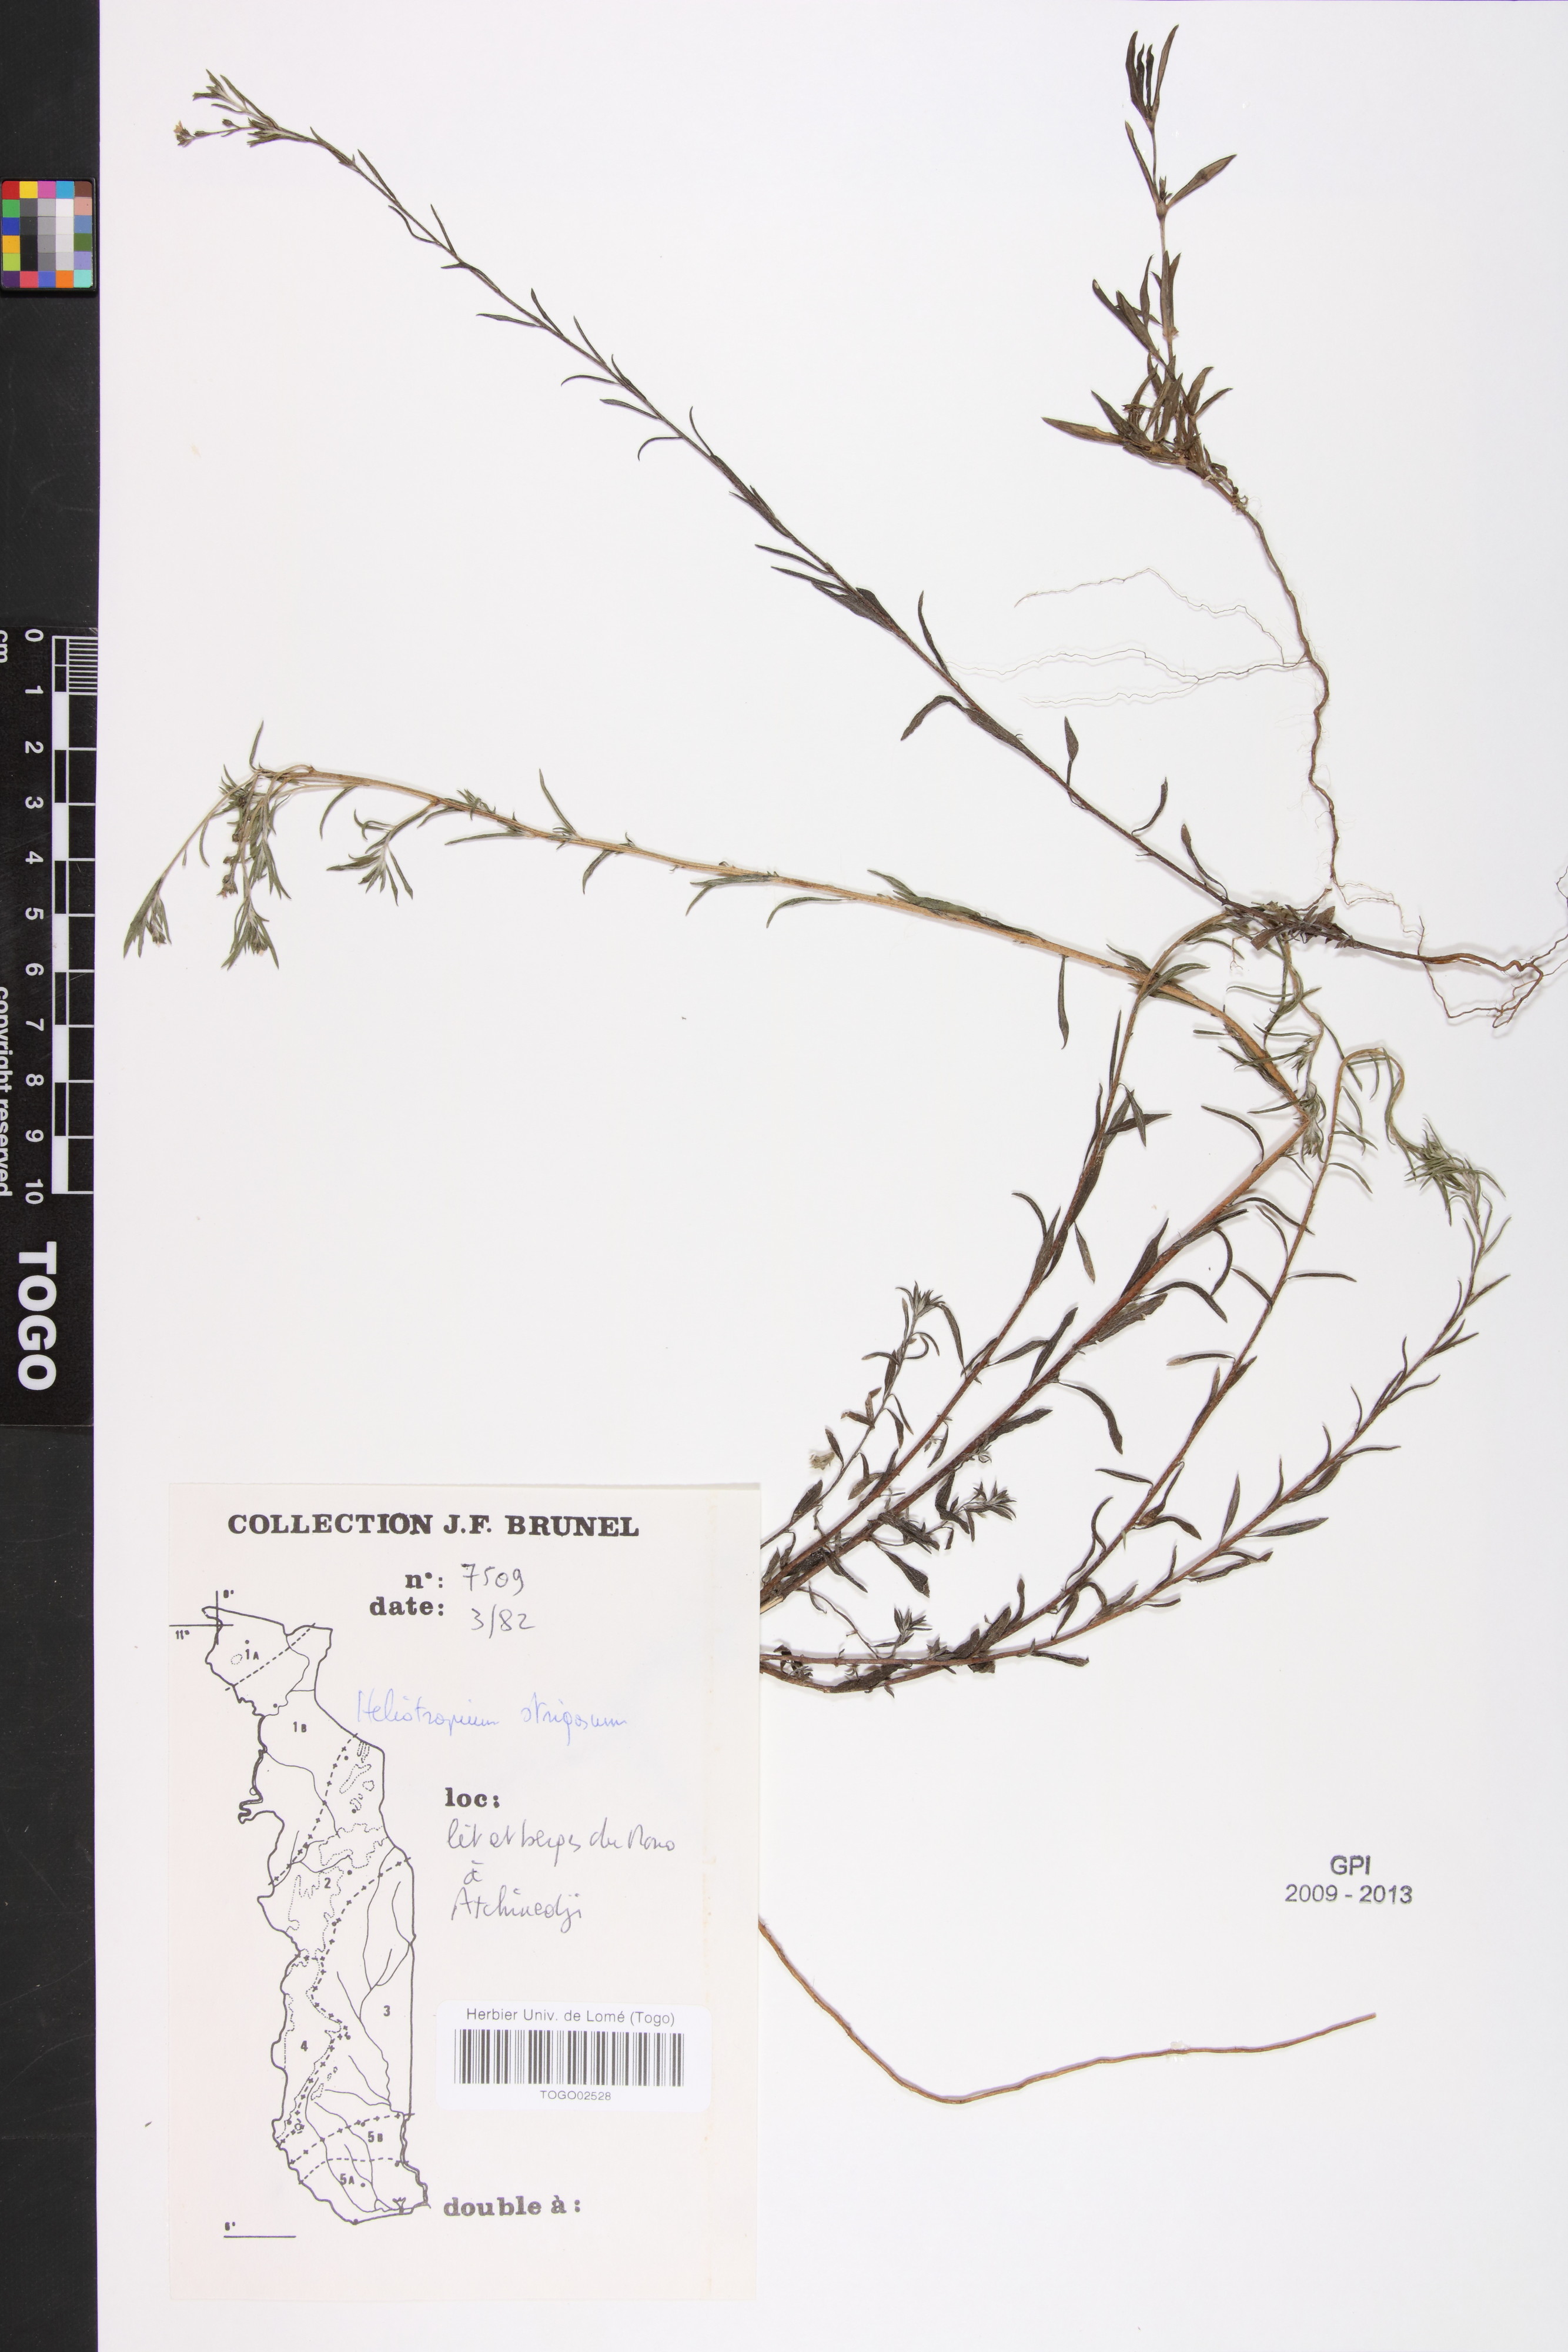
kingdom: Plantae
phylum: Tracheophyta
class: Magnoliopsida
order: Boraginales
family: Heliotropiaceae
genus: Euploca
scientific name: Euploca strigosa
